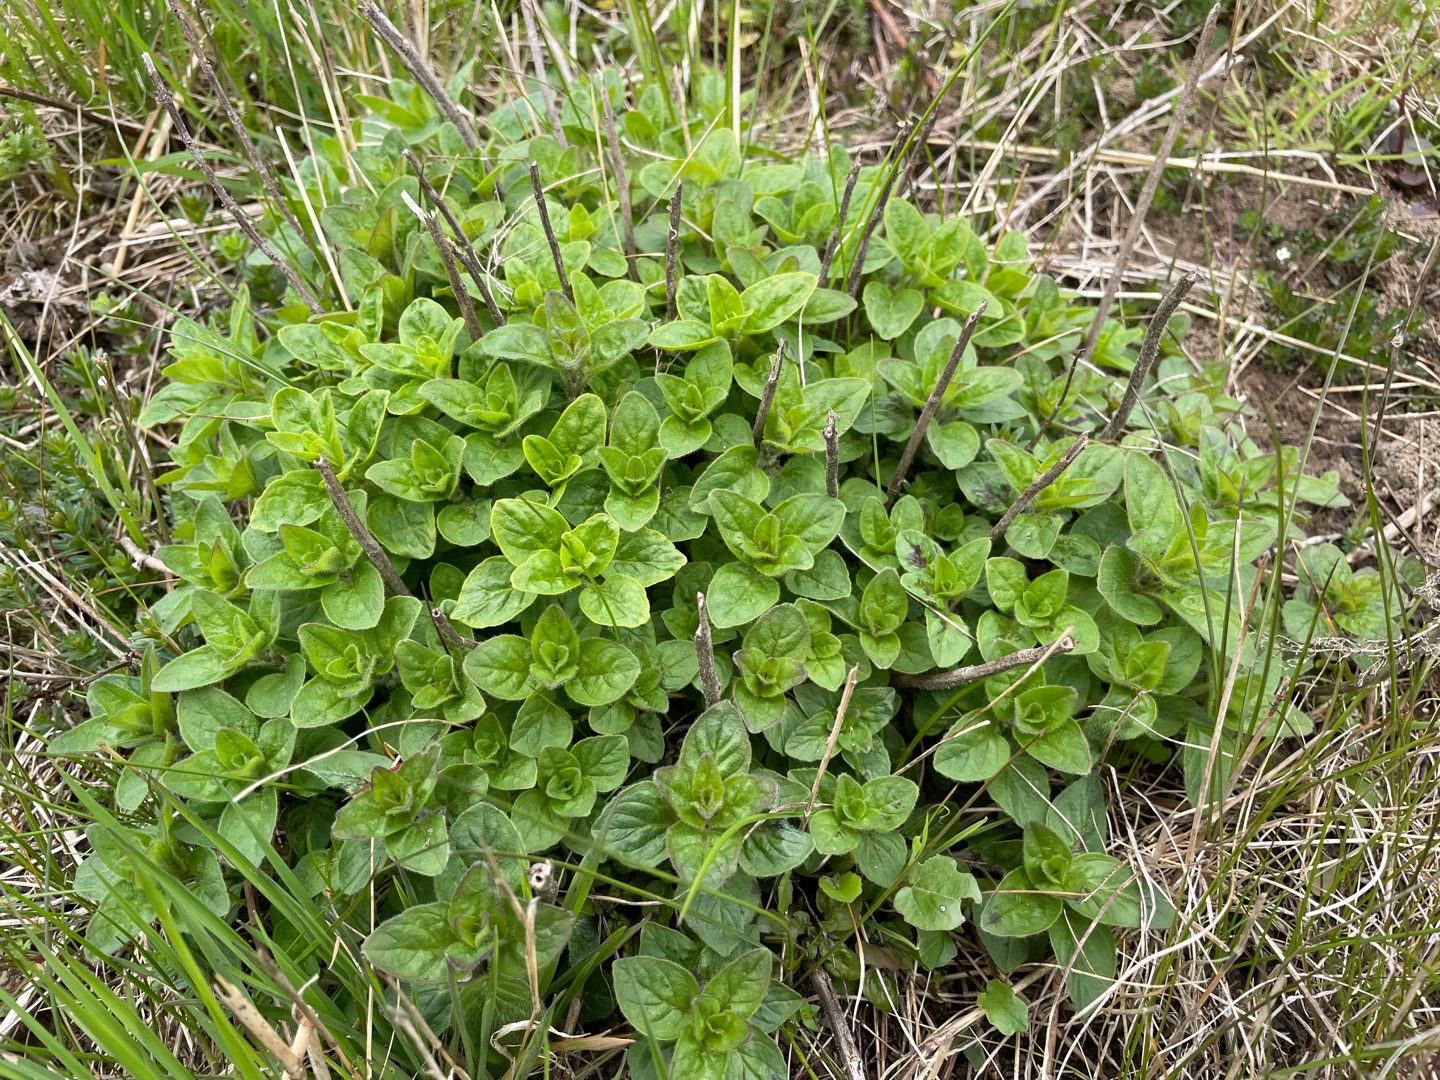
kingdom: Plantae
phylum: Tracheophyta
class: Magnoliopsida
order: Lamiales
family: Lamiaceae
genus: Origanum
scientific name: Origanum vulgare
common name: Merian
